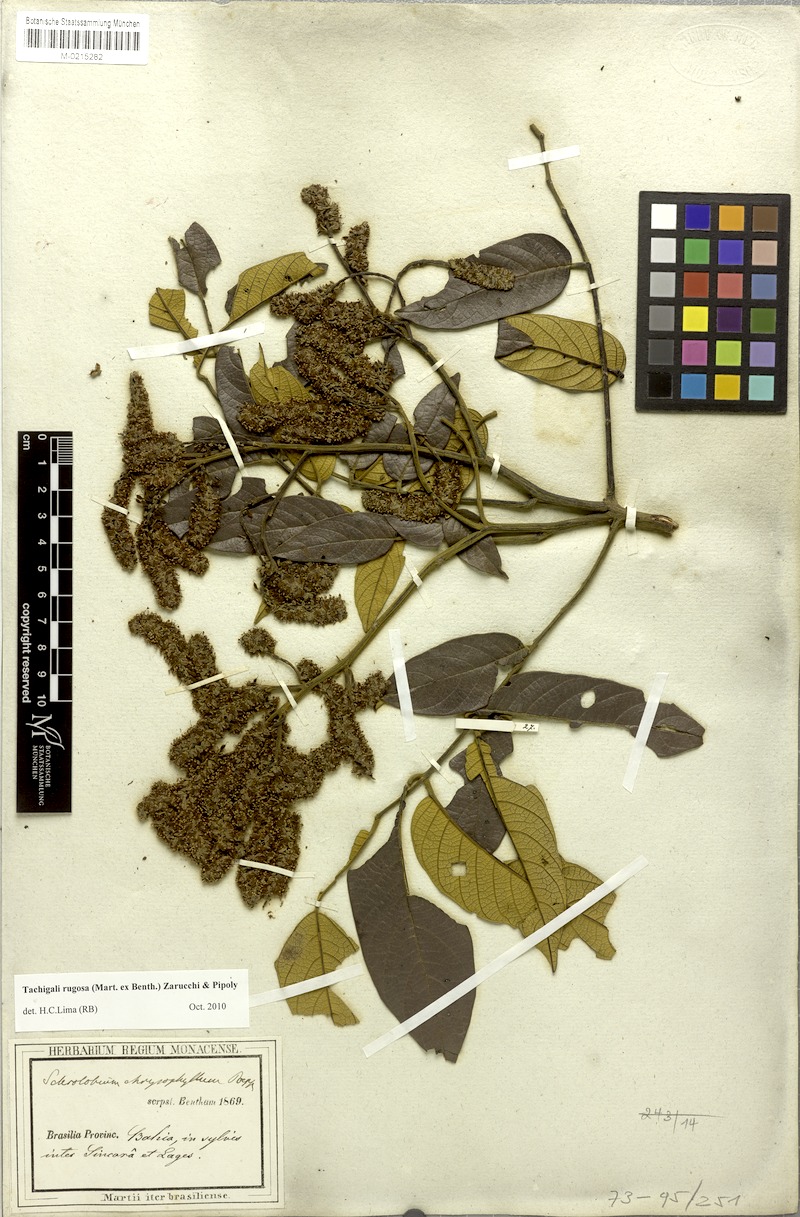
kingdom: Plantae
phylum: Tracheophyta
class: Magnoliopsida
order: Fabales
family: Fabaceae
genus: Tachigali
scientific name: Tachigali rugosa
